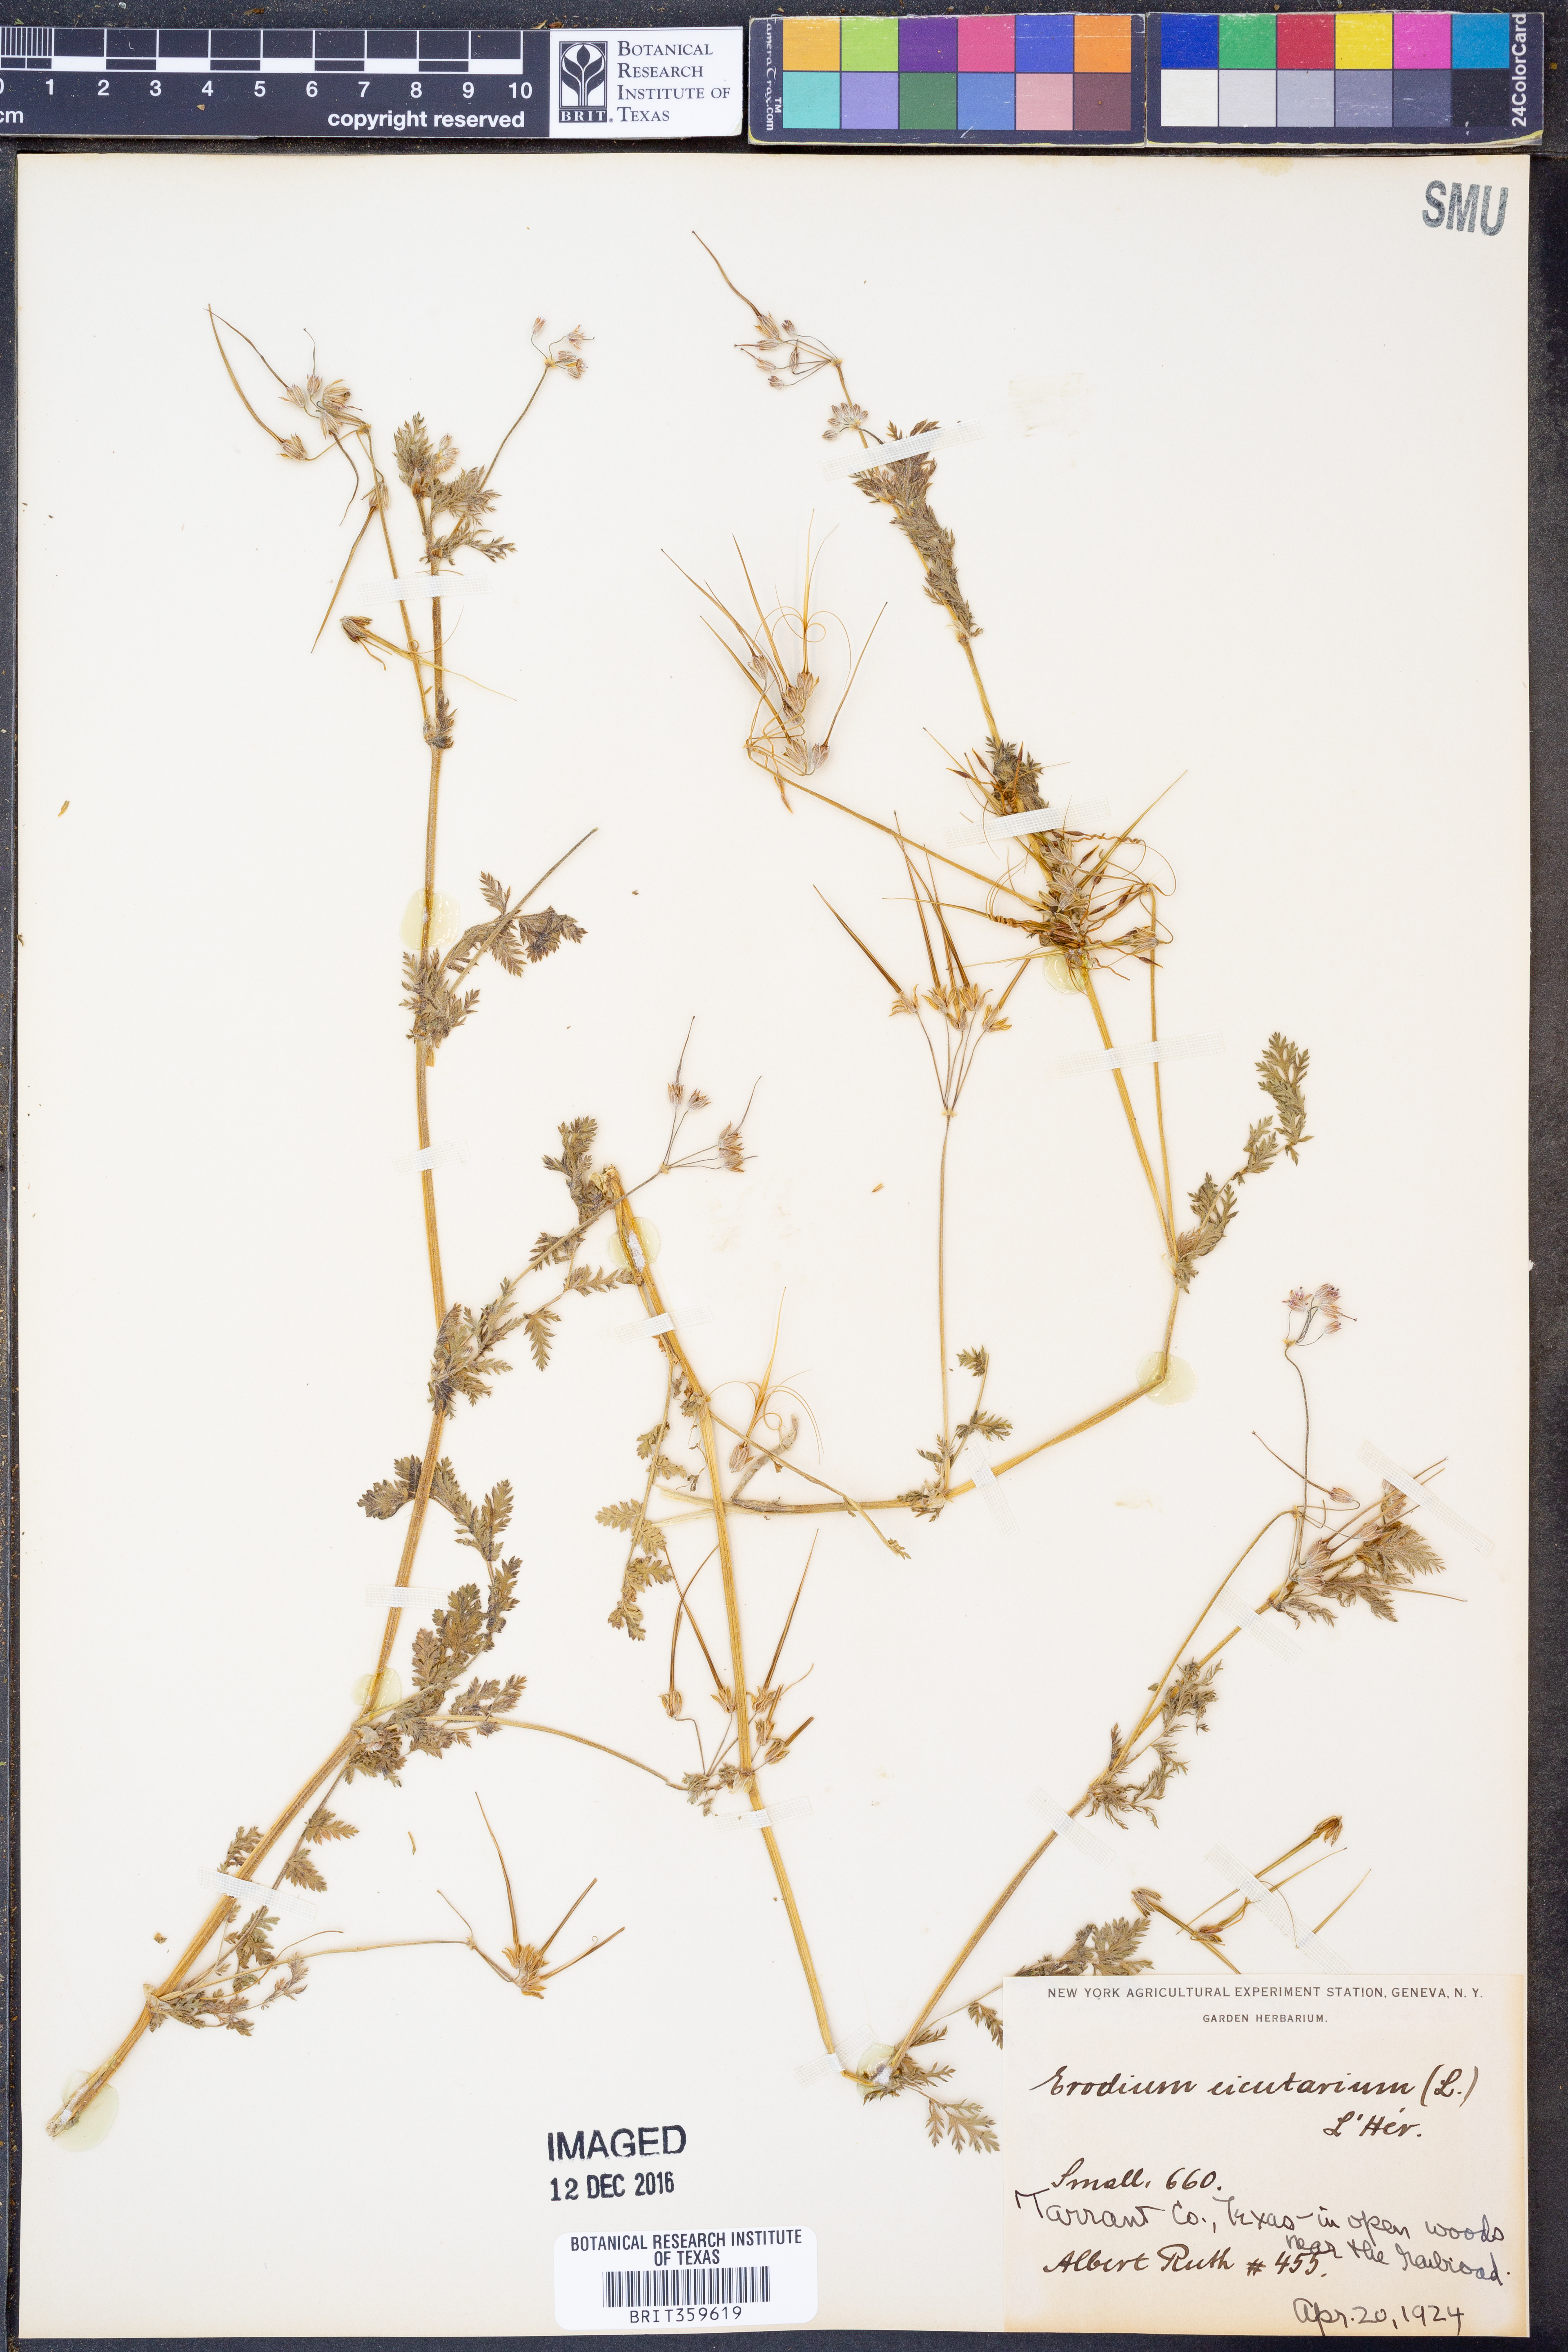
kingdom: Plantae
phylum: Tracheophyta
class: Magnoliopsida
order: Geraniales
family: Geraniaceae
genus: Erodium
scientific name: Erodium cicutarium
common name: Common stork's-bill
